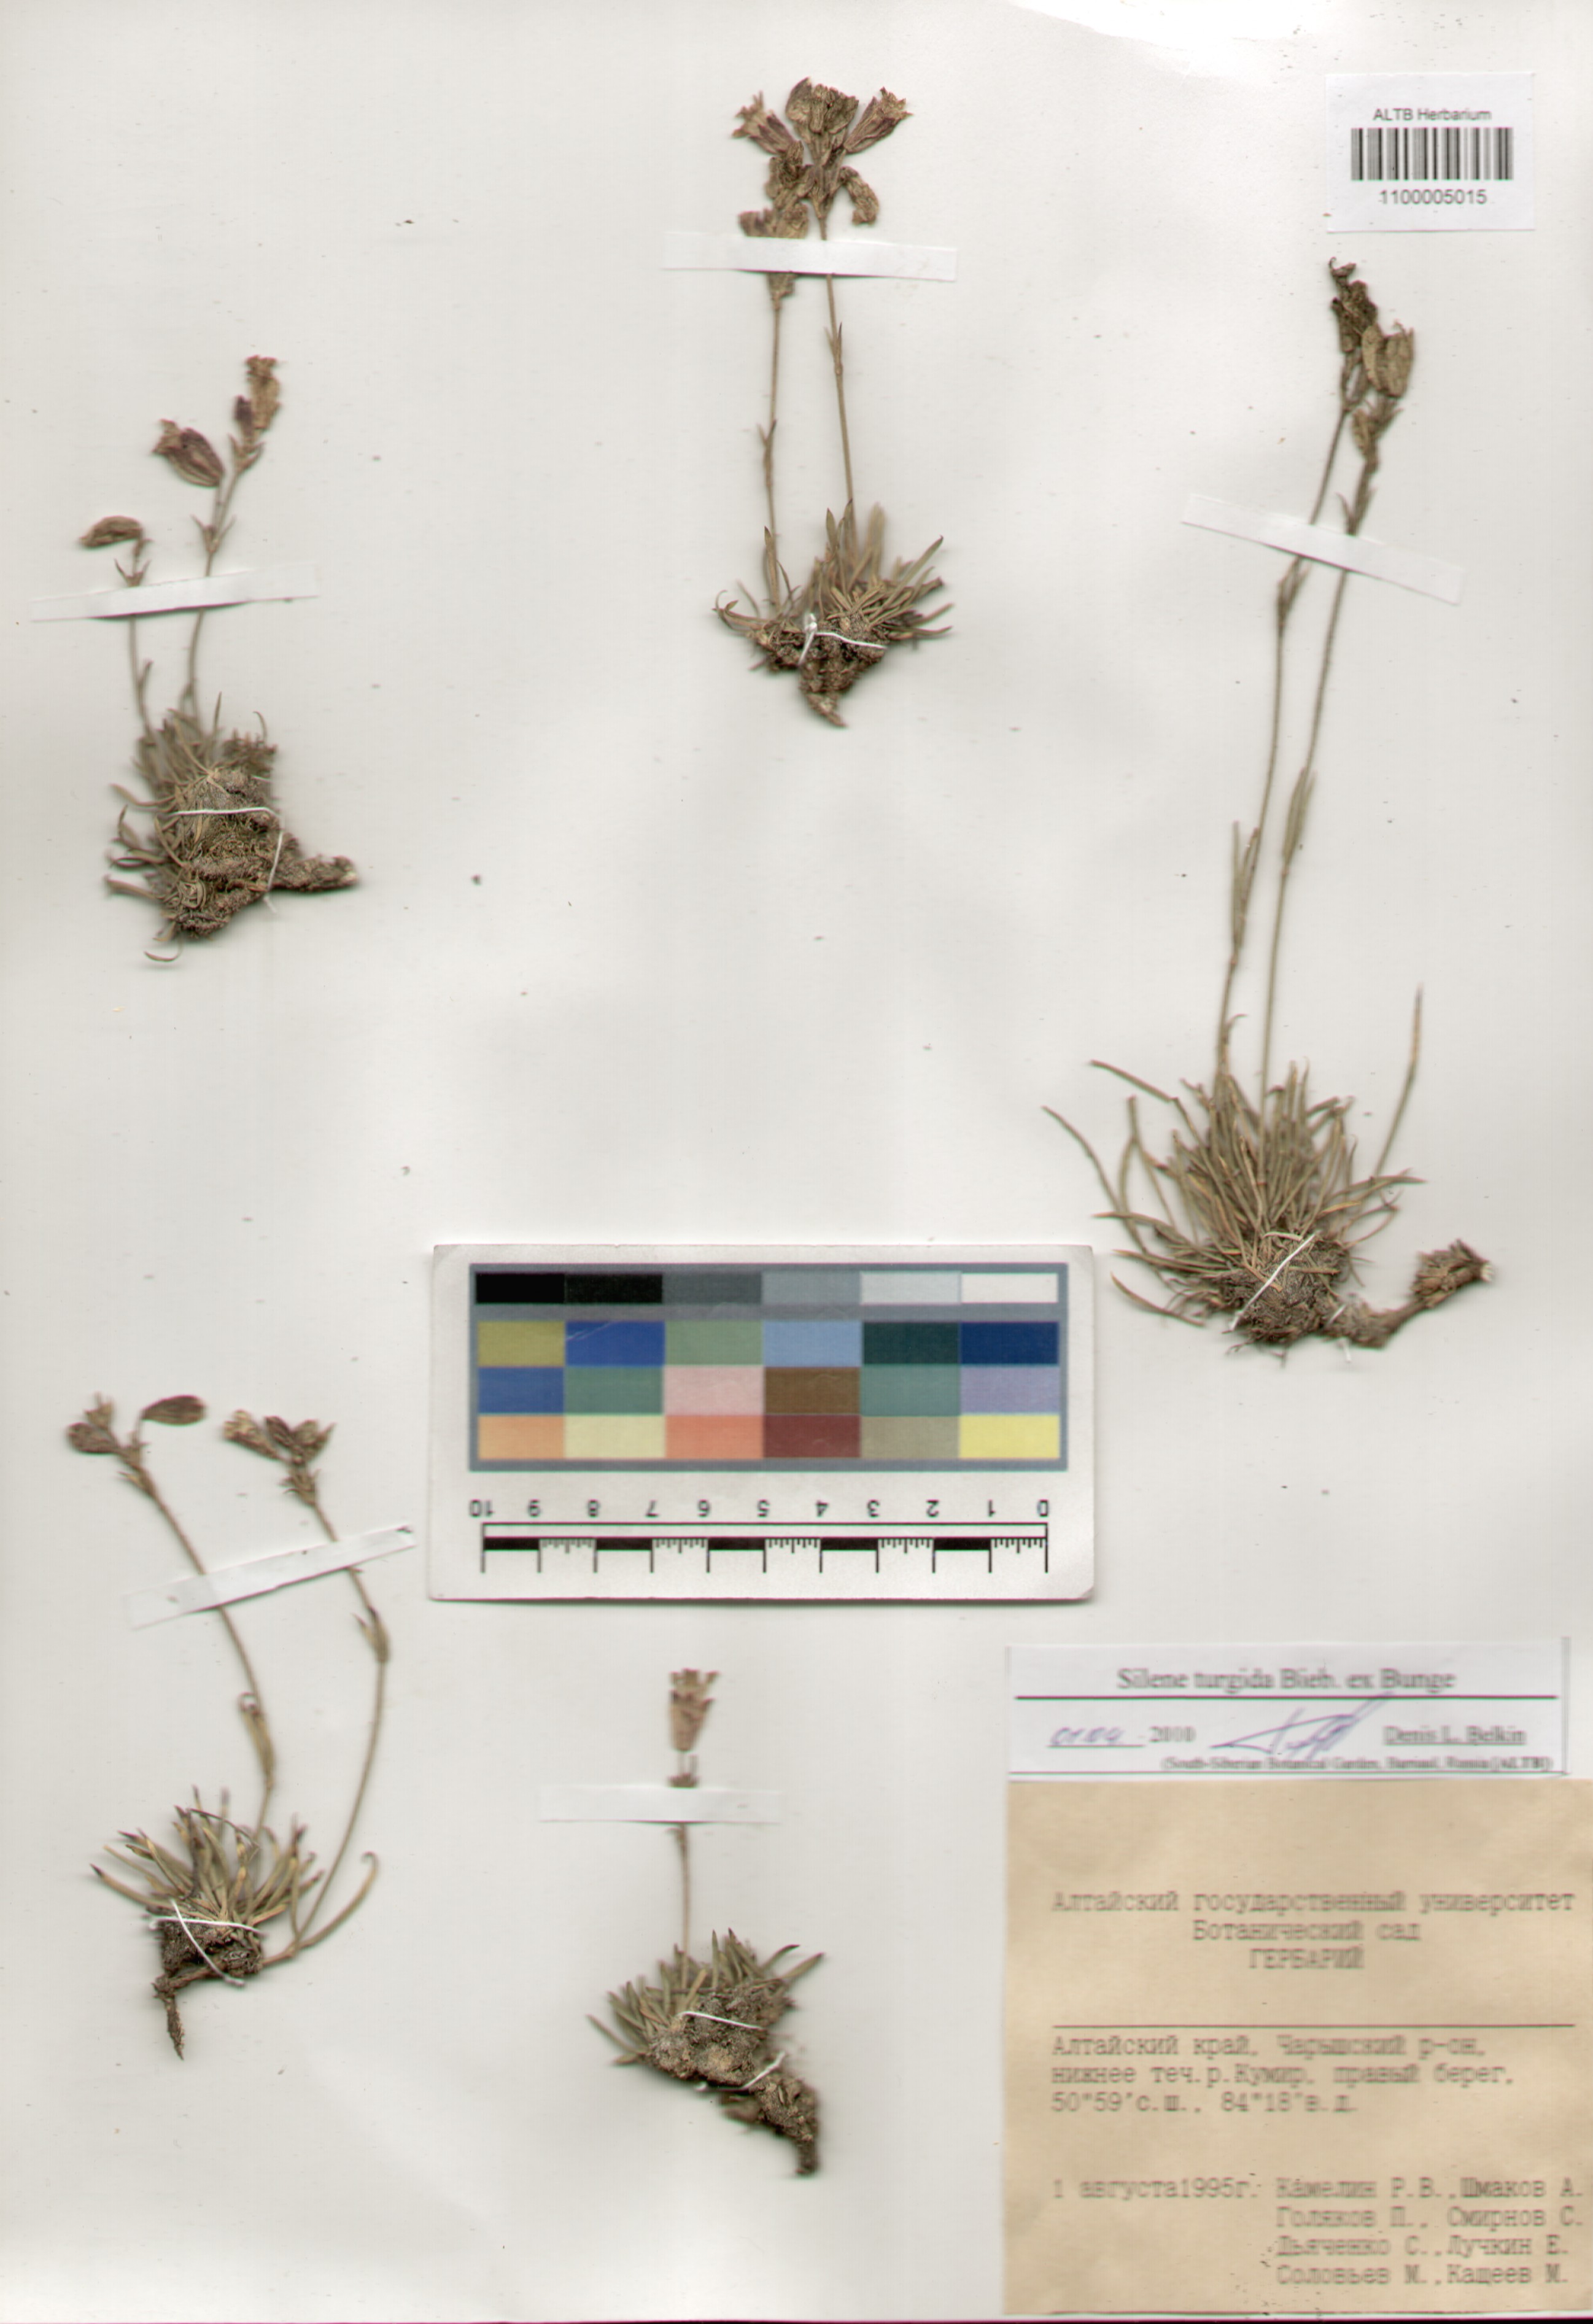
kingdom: Plantae
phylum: Tracheophyta
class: Magnoliopsida
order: Caryophyllales
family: Caryophyllaceae
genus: Silene
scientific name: Silene turgida
